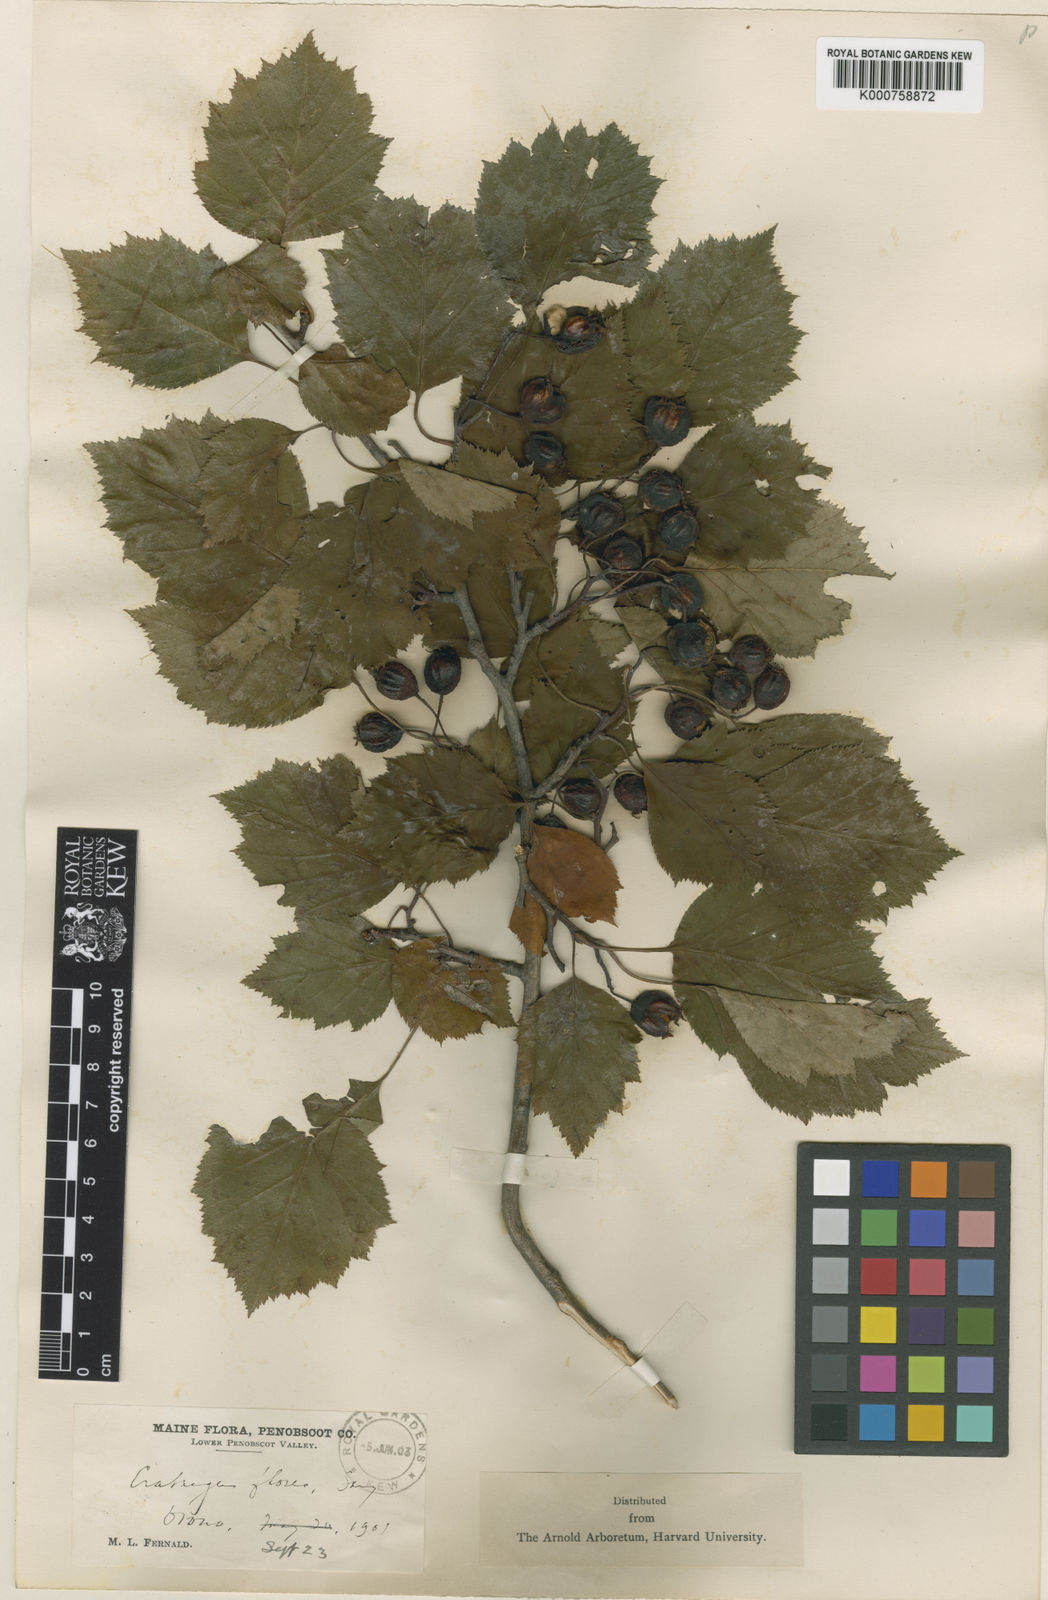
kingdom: Plantae
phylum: Tracheophyta
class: Magnoliopsida
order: Rosales
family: Rosaceae
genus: Crataegus
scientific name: Crataegus florea
